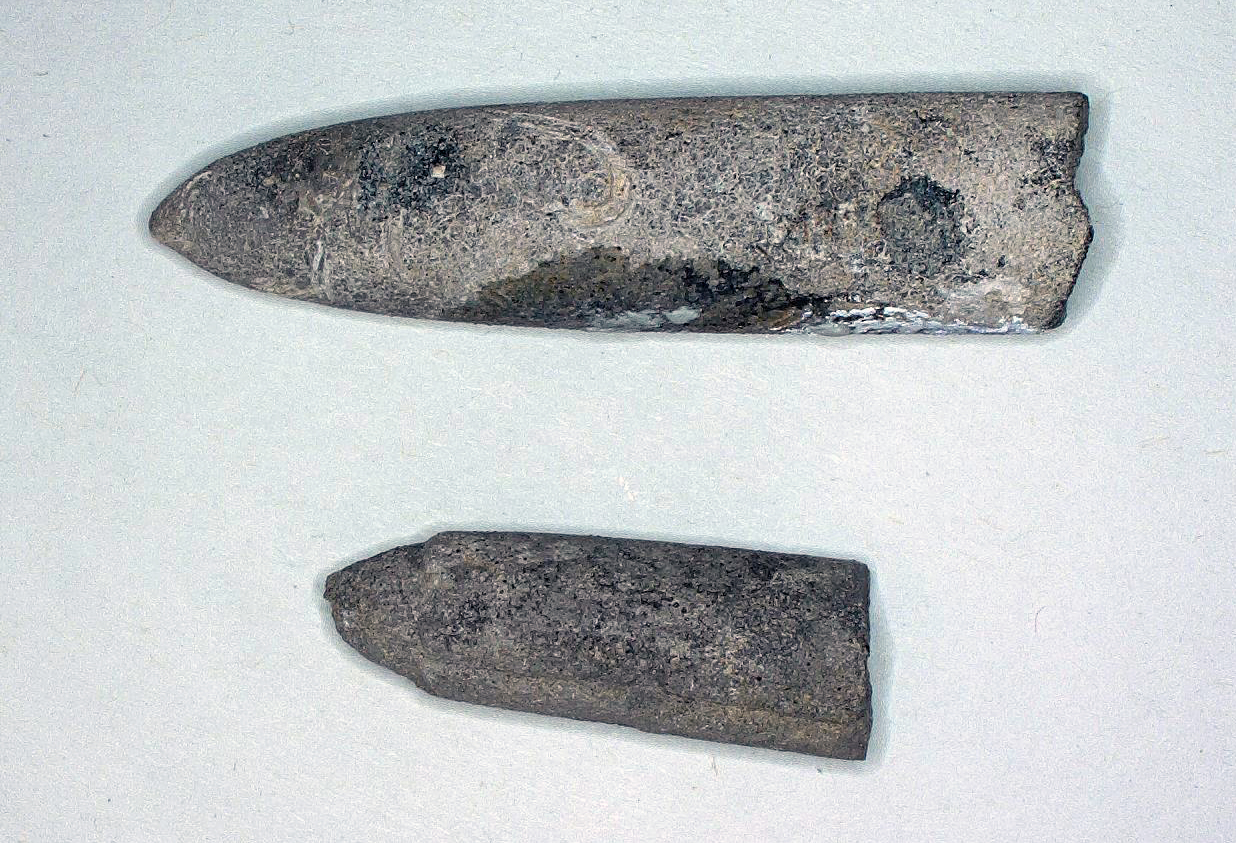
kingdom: Animalia
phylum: Mollusca
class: Cephalopoda
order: Belemnitida
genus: Holcobelus
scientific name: Holcobelus
